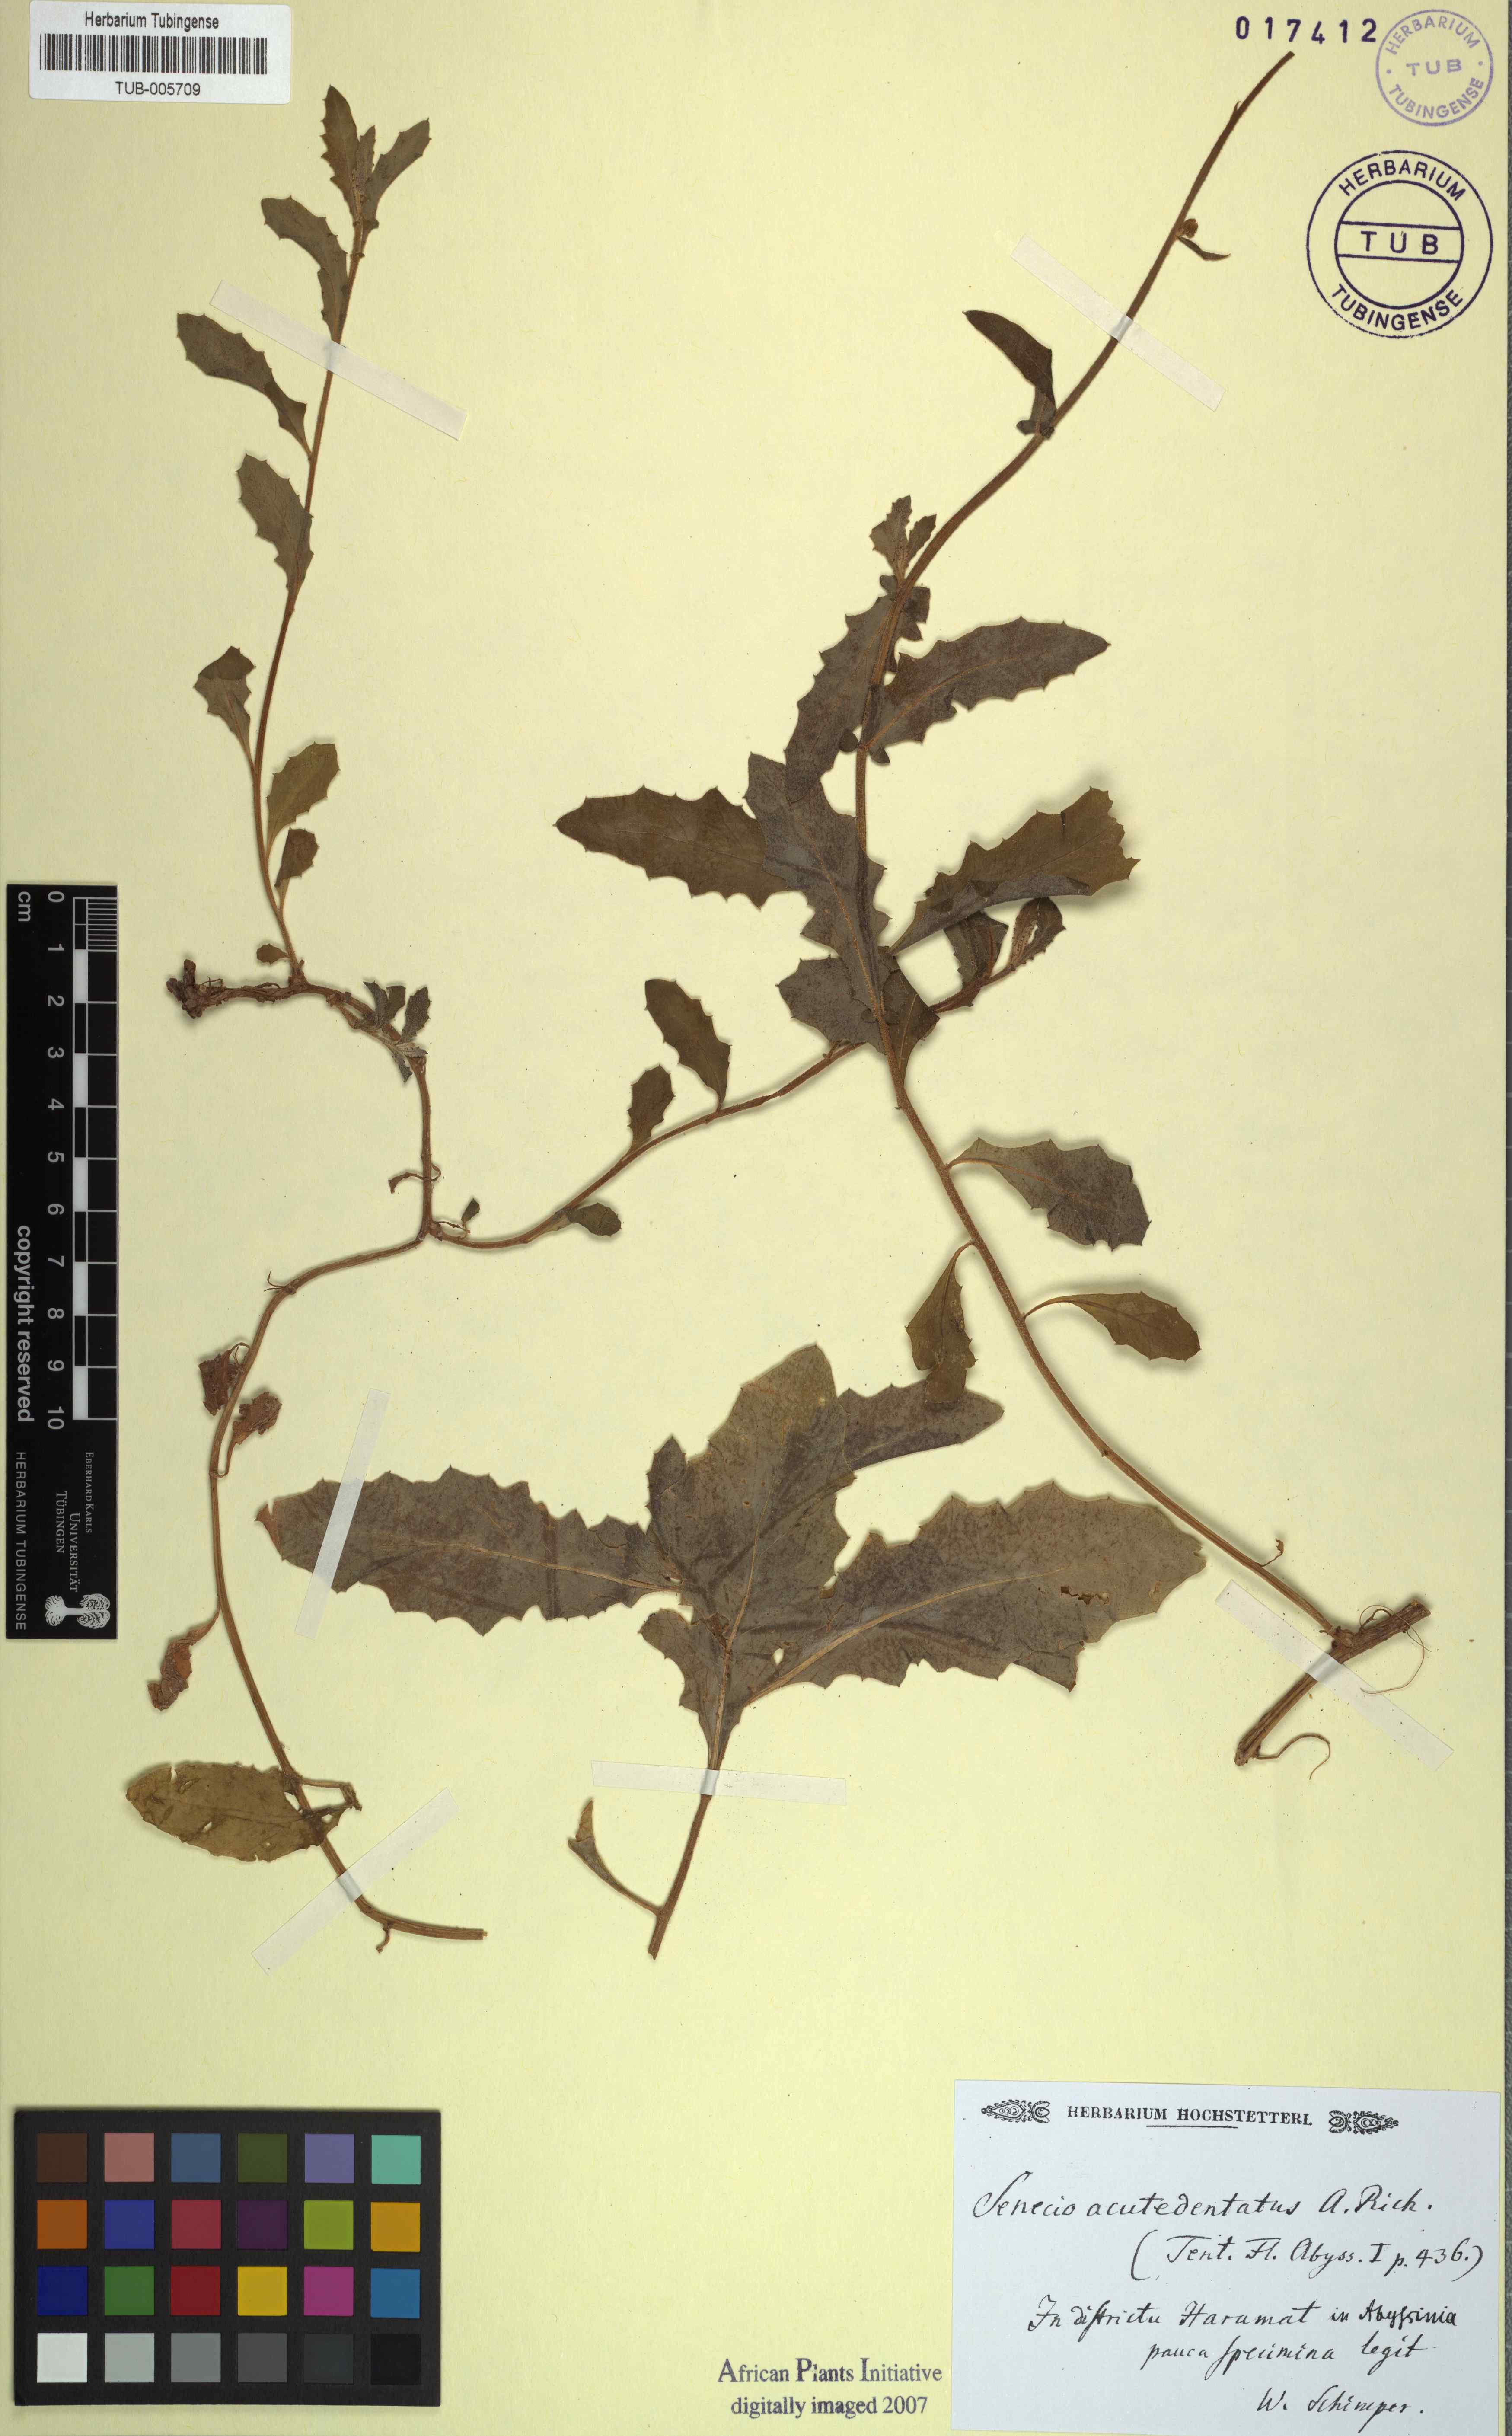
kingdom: Plantae
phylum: Tracheophyta
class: Magnoliopsida
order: Asterales
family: Asteraceae
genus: Crassocephalum
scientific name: Crassocephalum picridifolium
